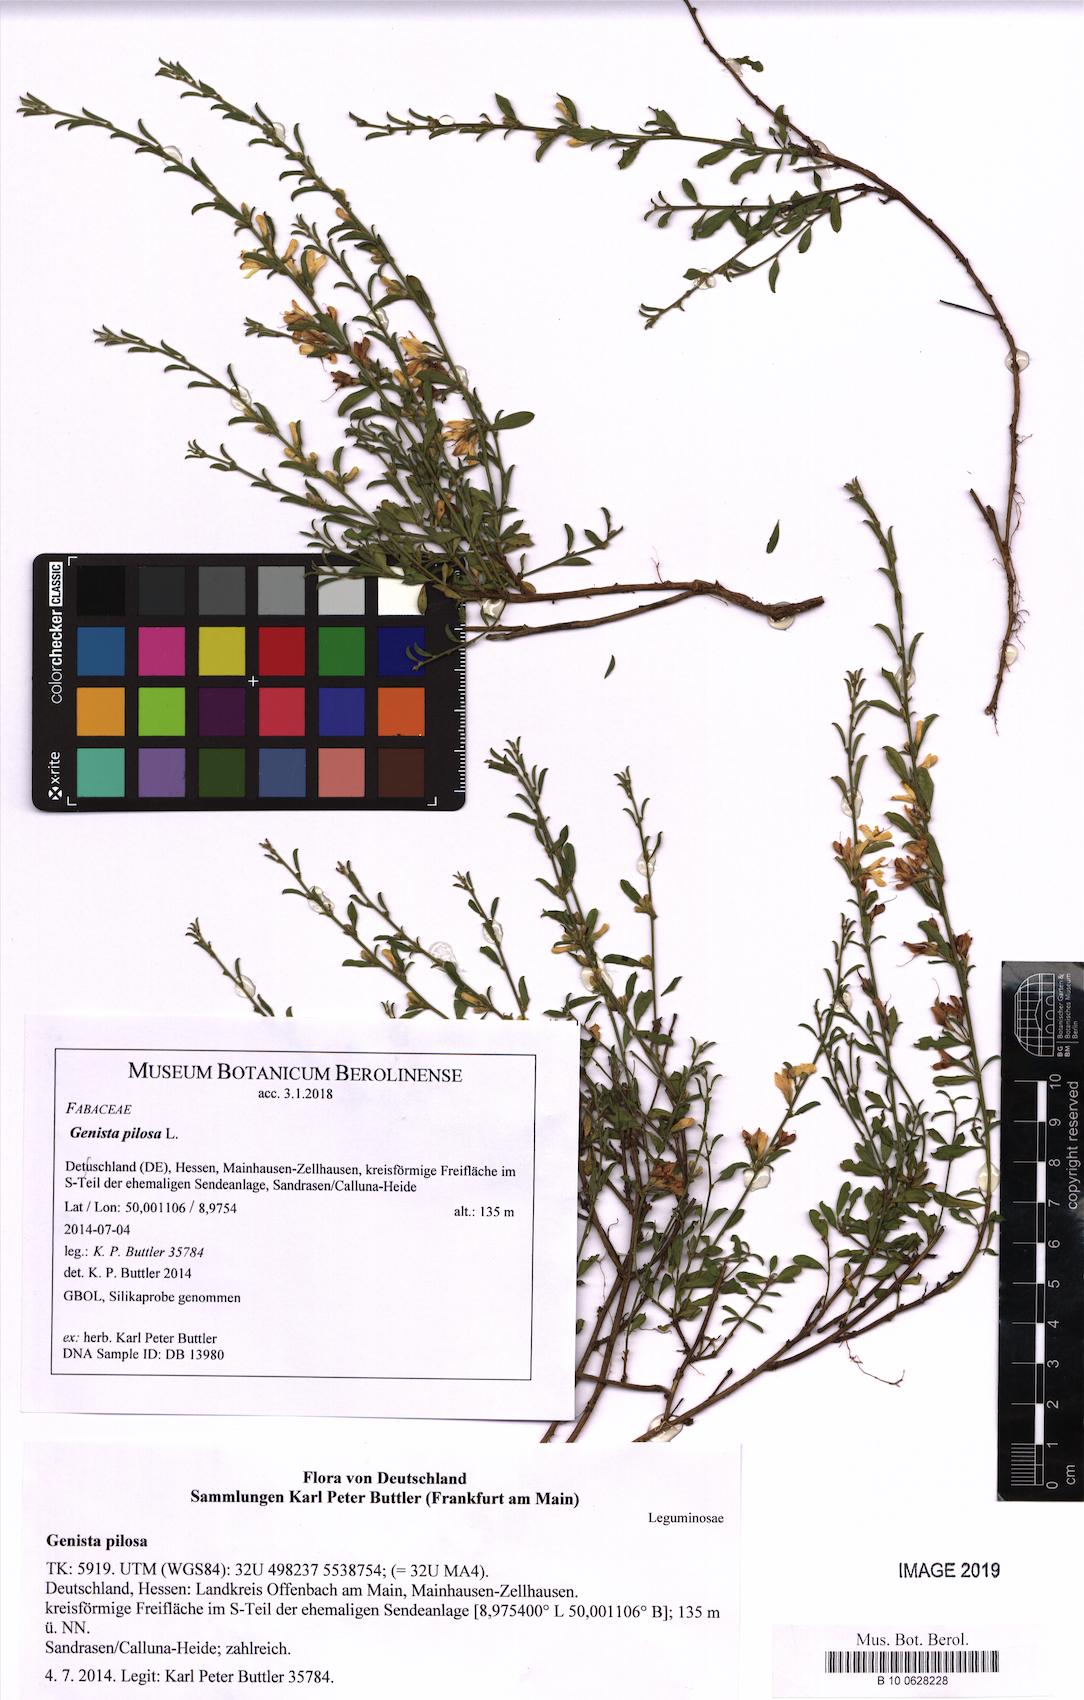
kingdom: Plantae
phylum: Tracheophyta
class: Magnoliopsida
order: Fabales
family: Fabaceae
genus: Genista
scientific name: Genista pilosa
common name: Hairy greenweed
